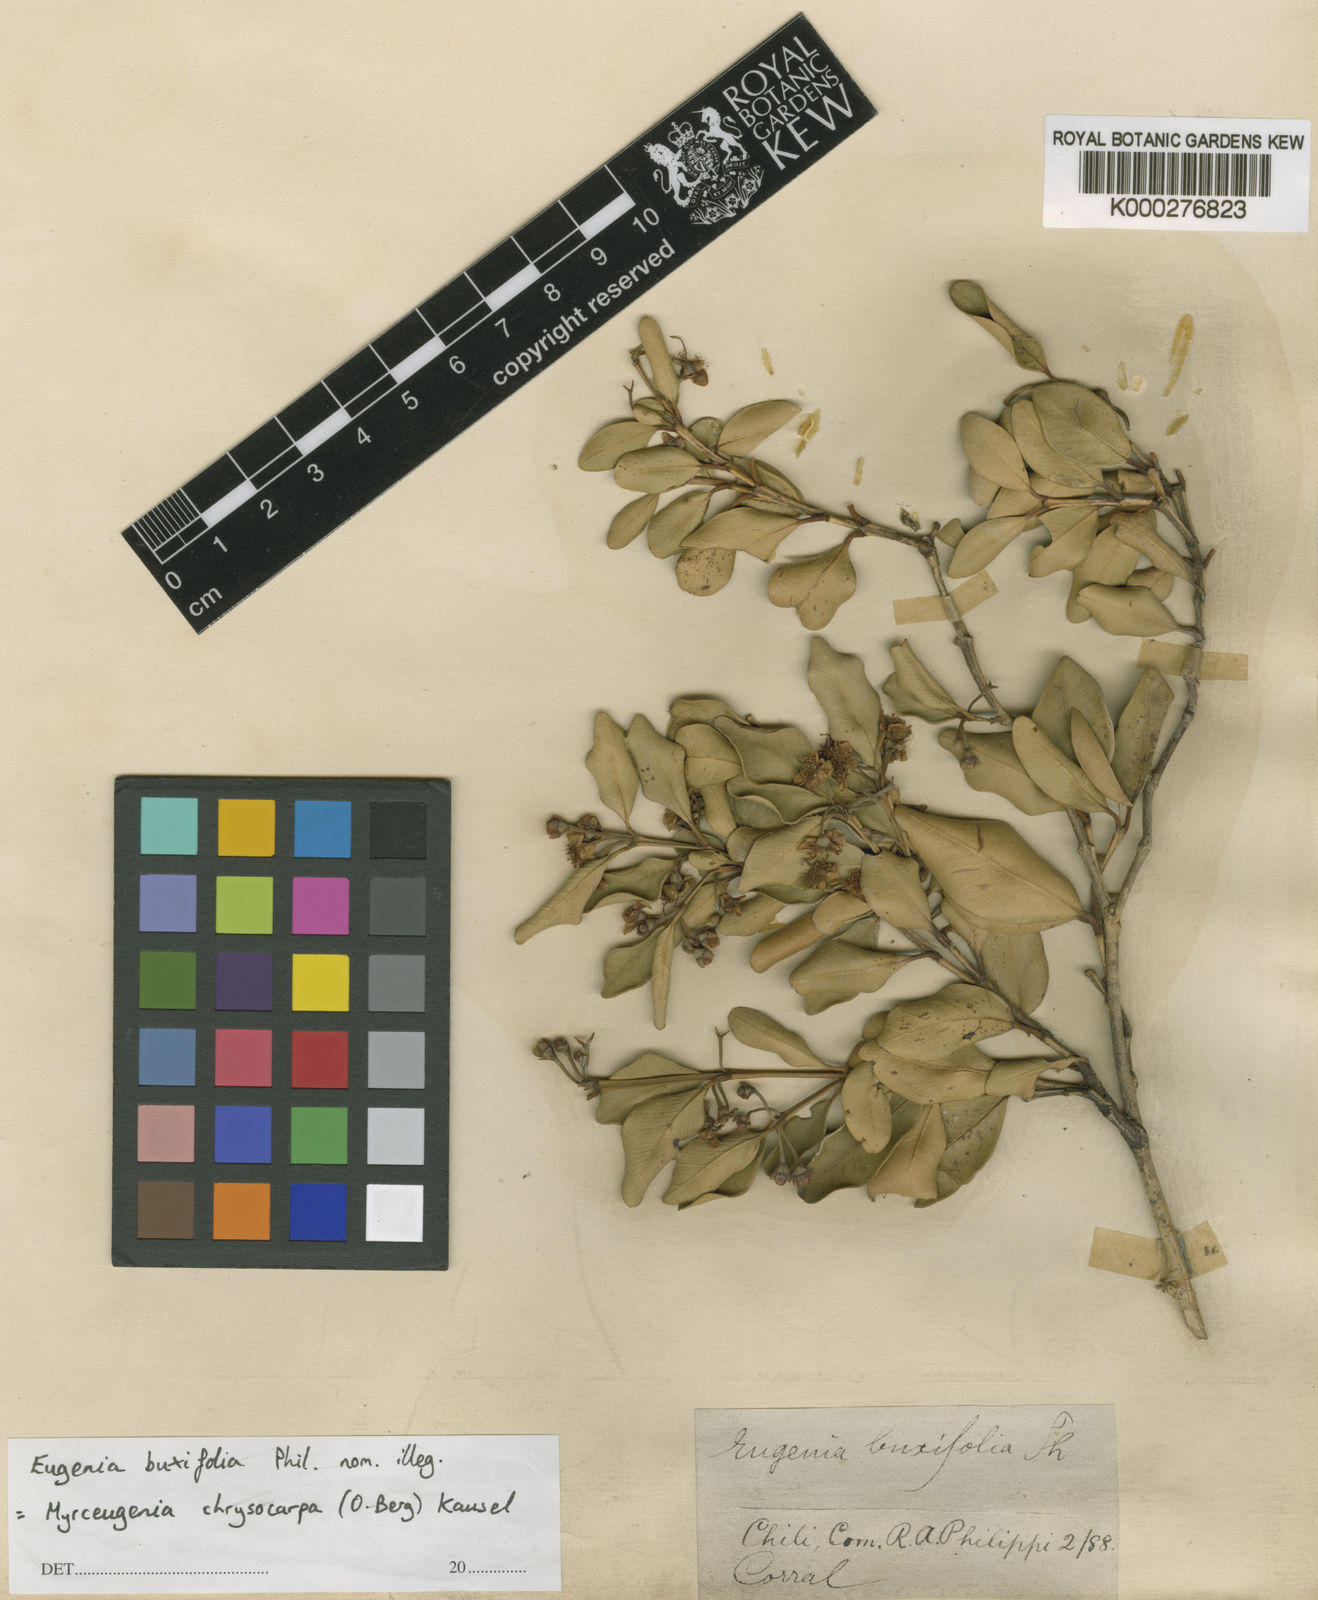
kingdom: Plantae
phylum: Tracheophyta
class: Magnoliopsida
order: Myrtales
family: Myrtaceae
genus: Myrceugenia
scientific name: Myrceugenia chrysocarpa
